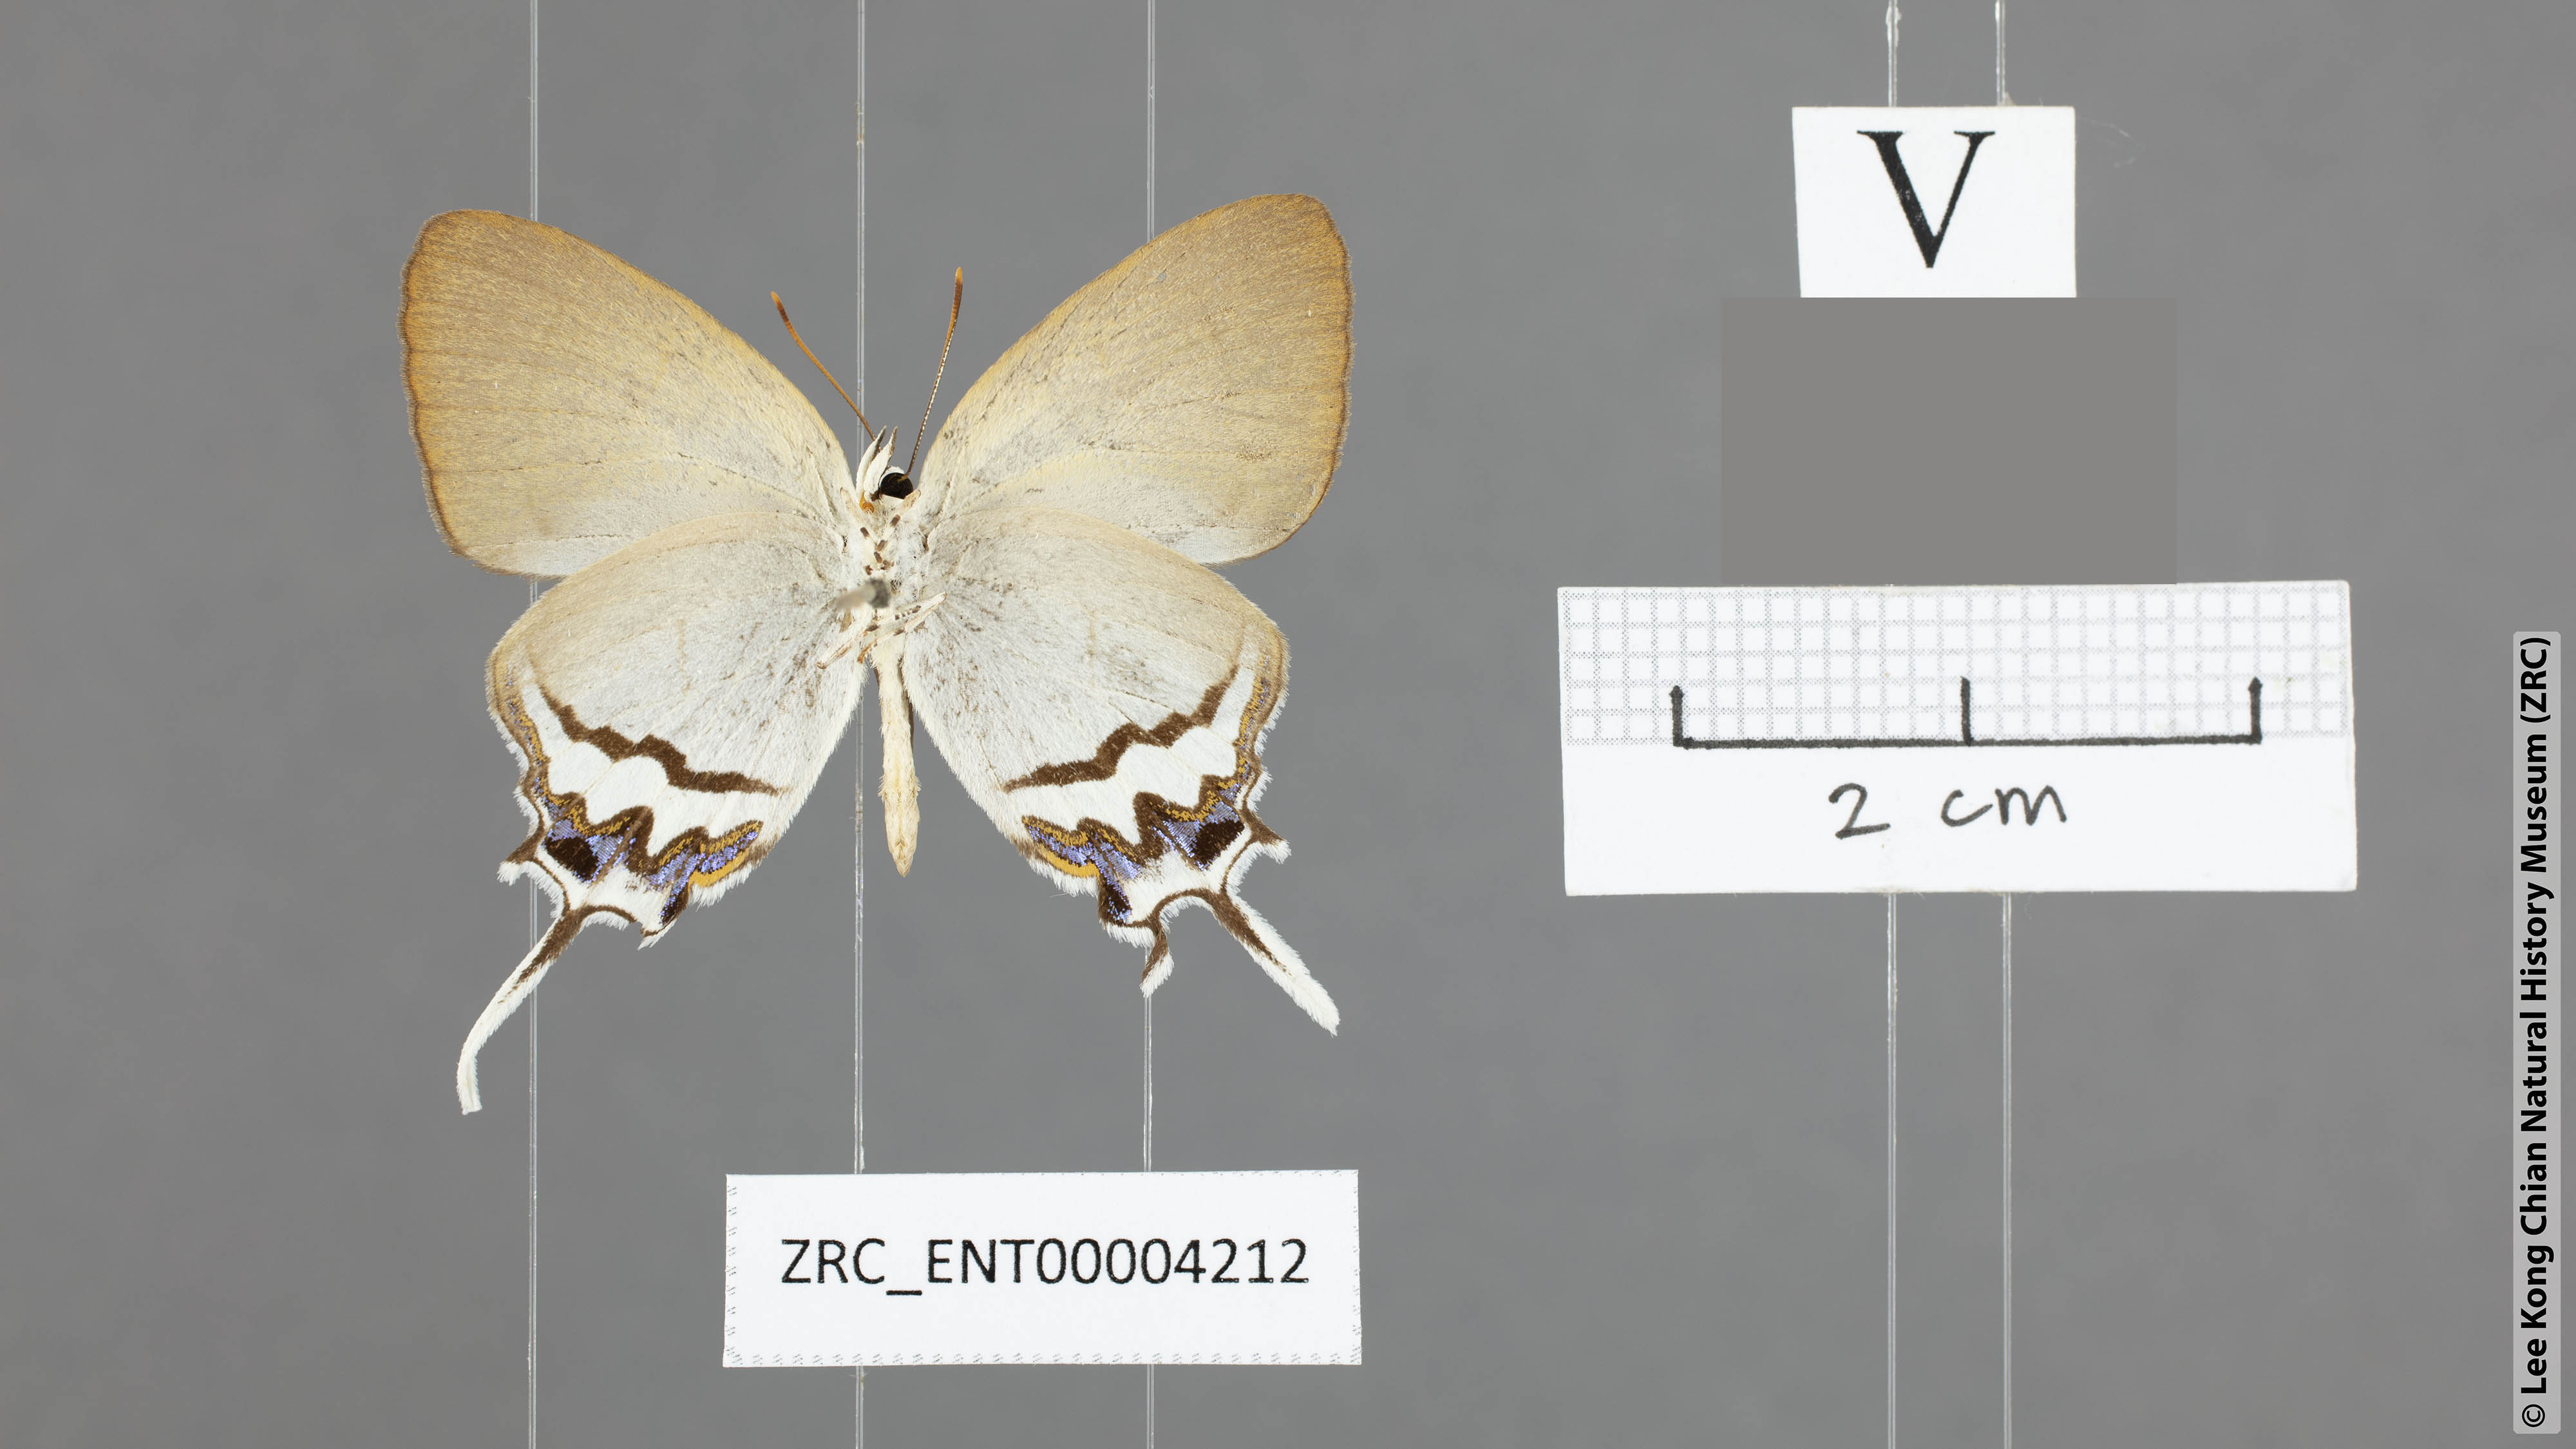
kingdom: Animalia
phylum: Arthropoda
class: Insecta
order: Lepidoptera
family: Lycaenidae
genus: Drupadia
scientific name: Drupadia cinesoides
